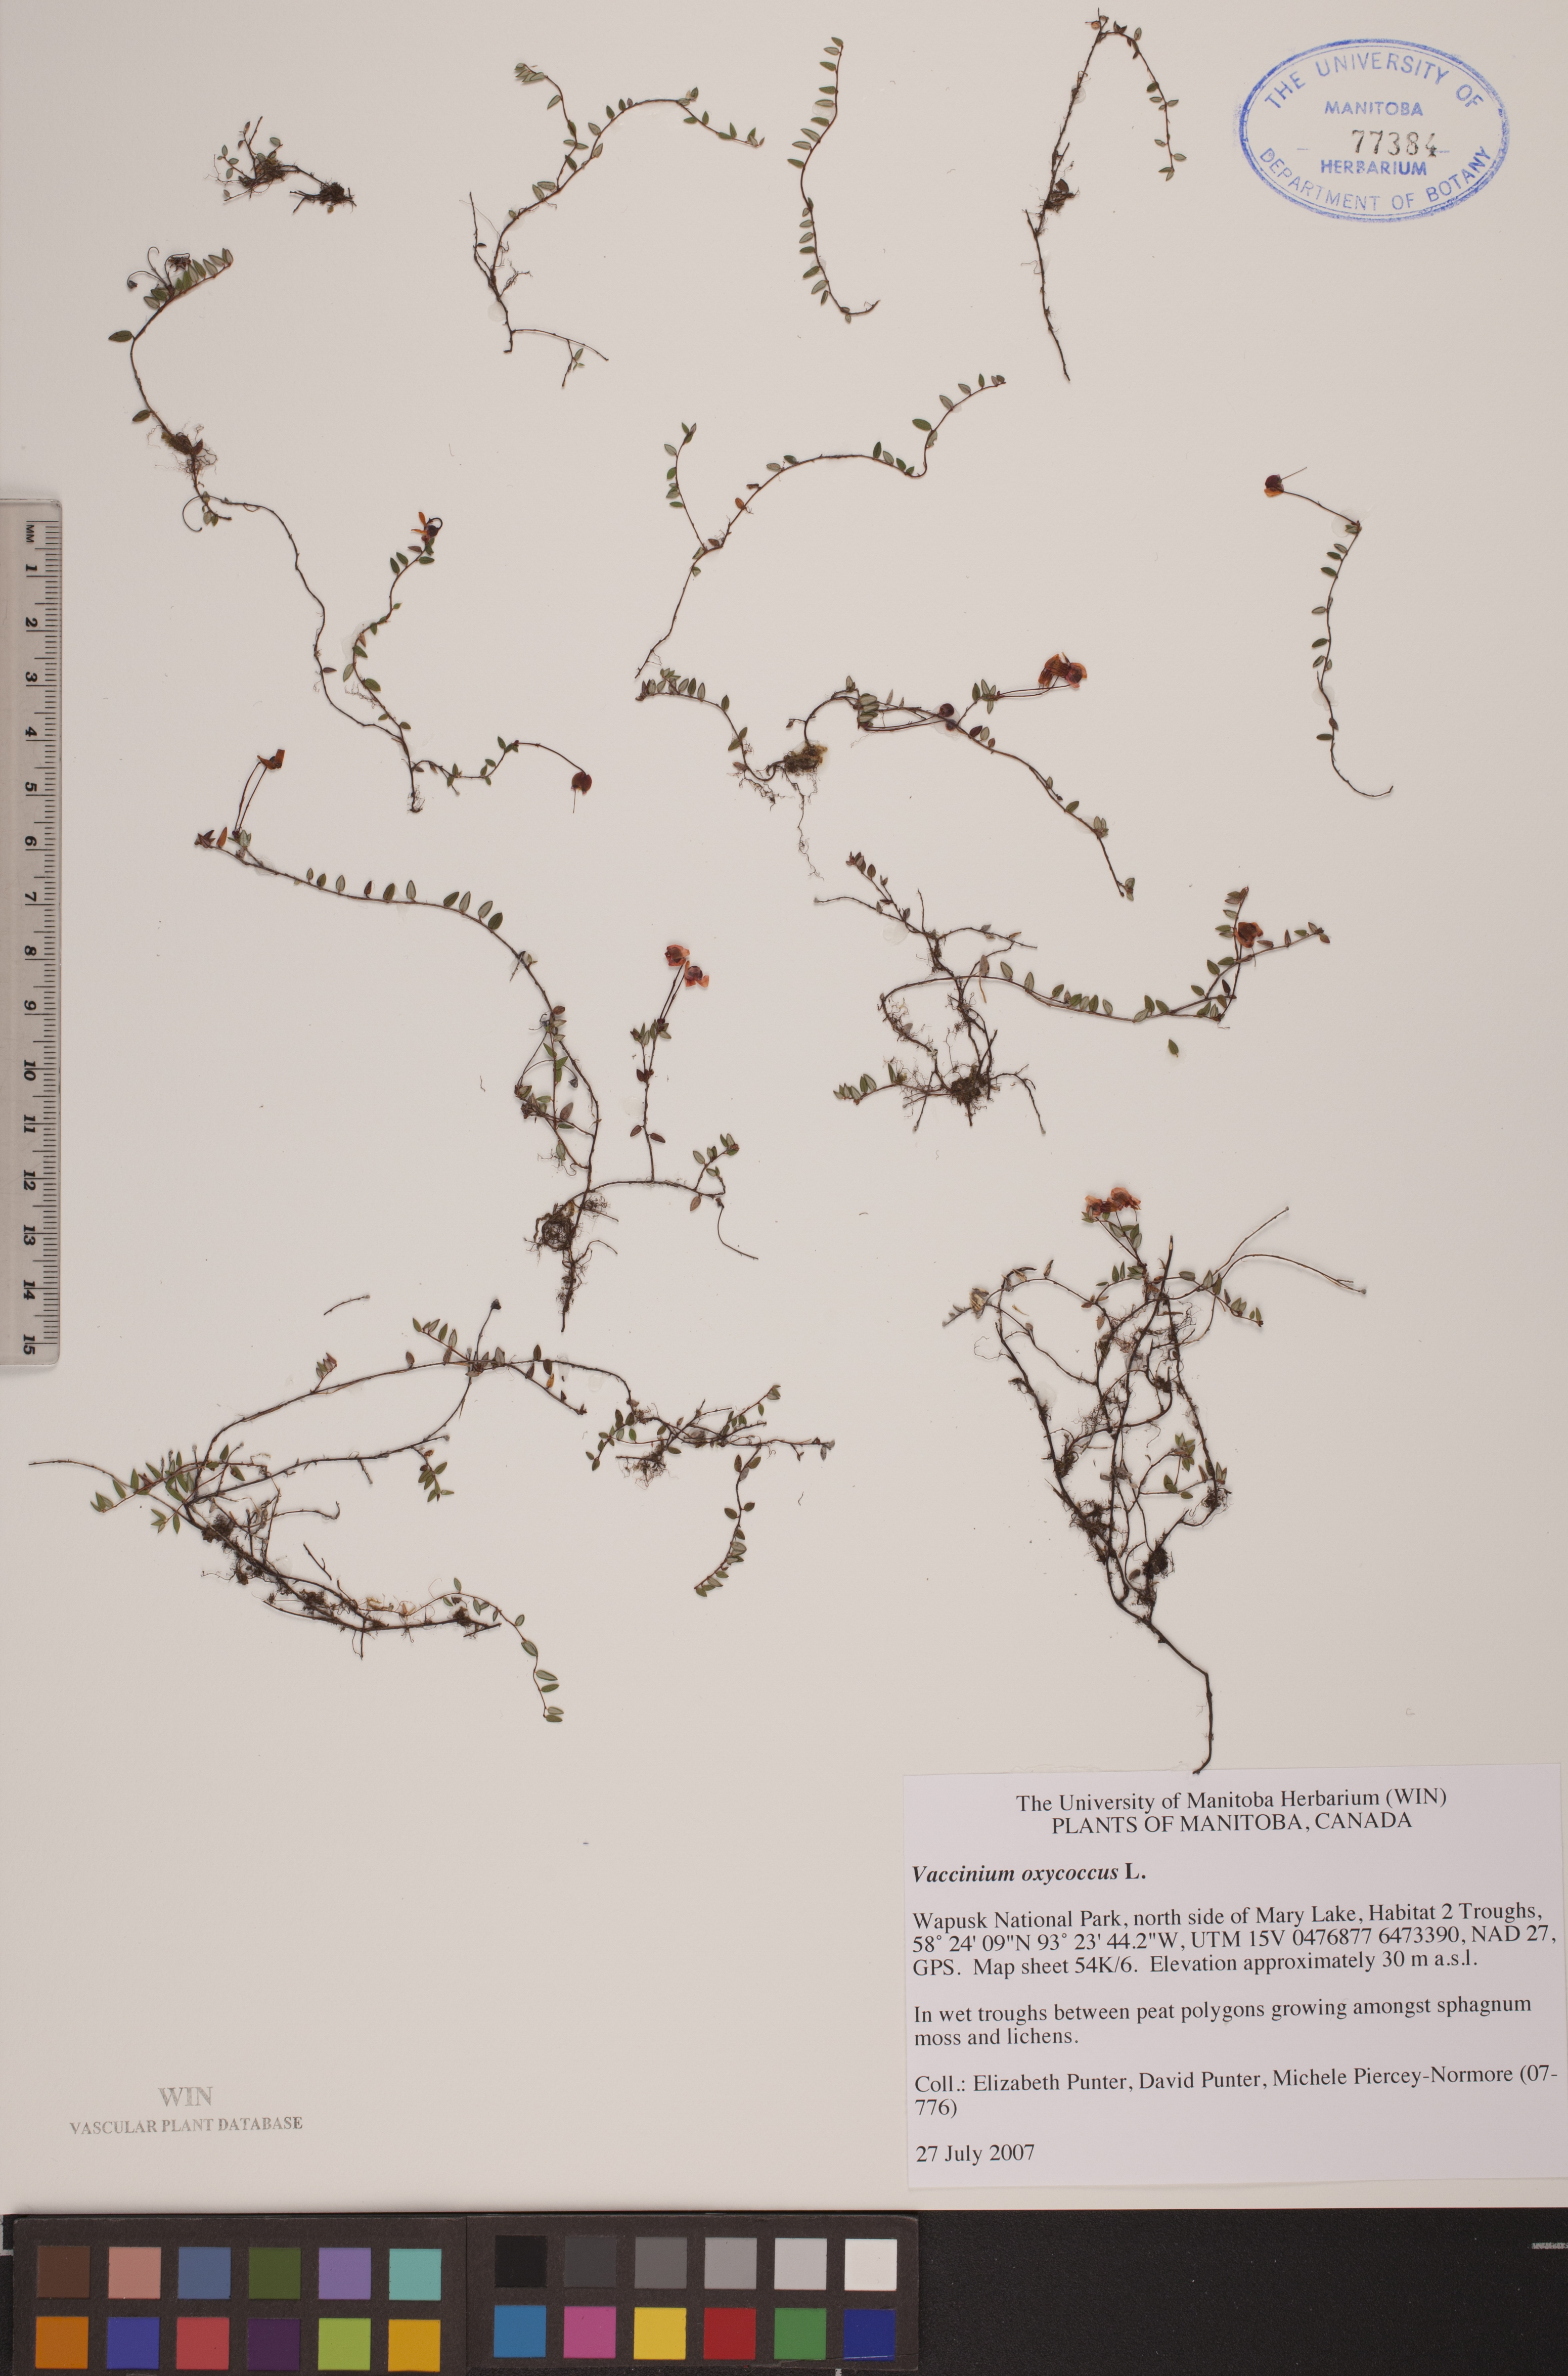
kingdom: Plantae
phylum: Tracheophyta
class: Magnoliopsida
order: Ericales
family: Ericaceae
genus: Vaccinium
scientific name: Vaccinium oxycoccos
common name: Cranberry
